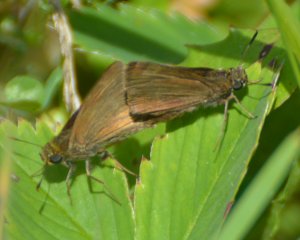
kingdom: Animalia
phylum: Arthropoda
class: Insecta
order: Lepidoptera
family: Hesperiidae
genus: Euphyes
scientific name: Euphyes vestris
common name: Dun Skipper
